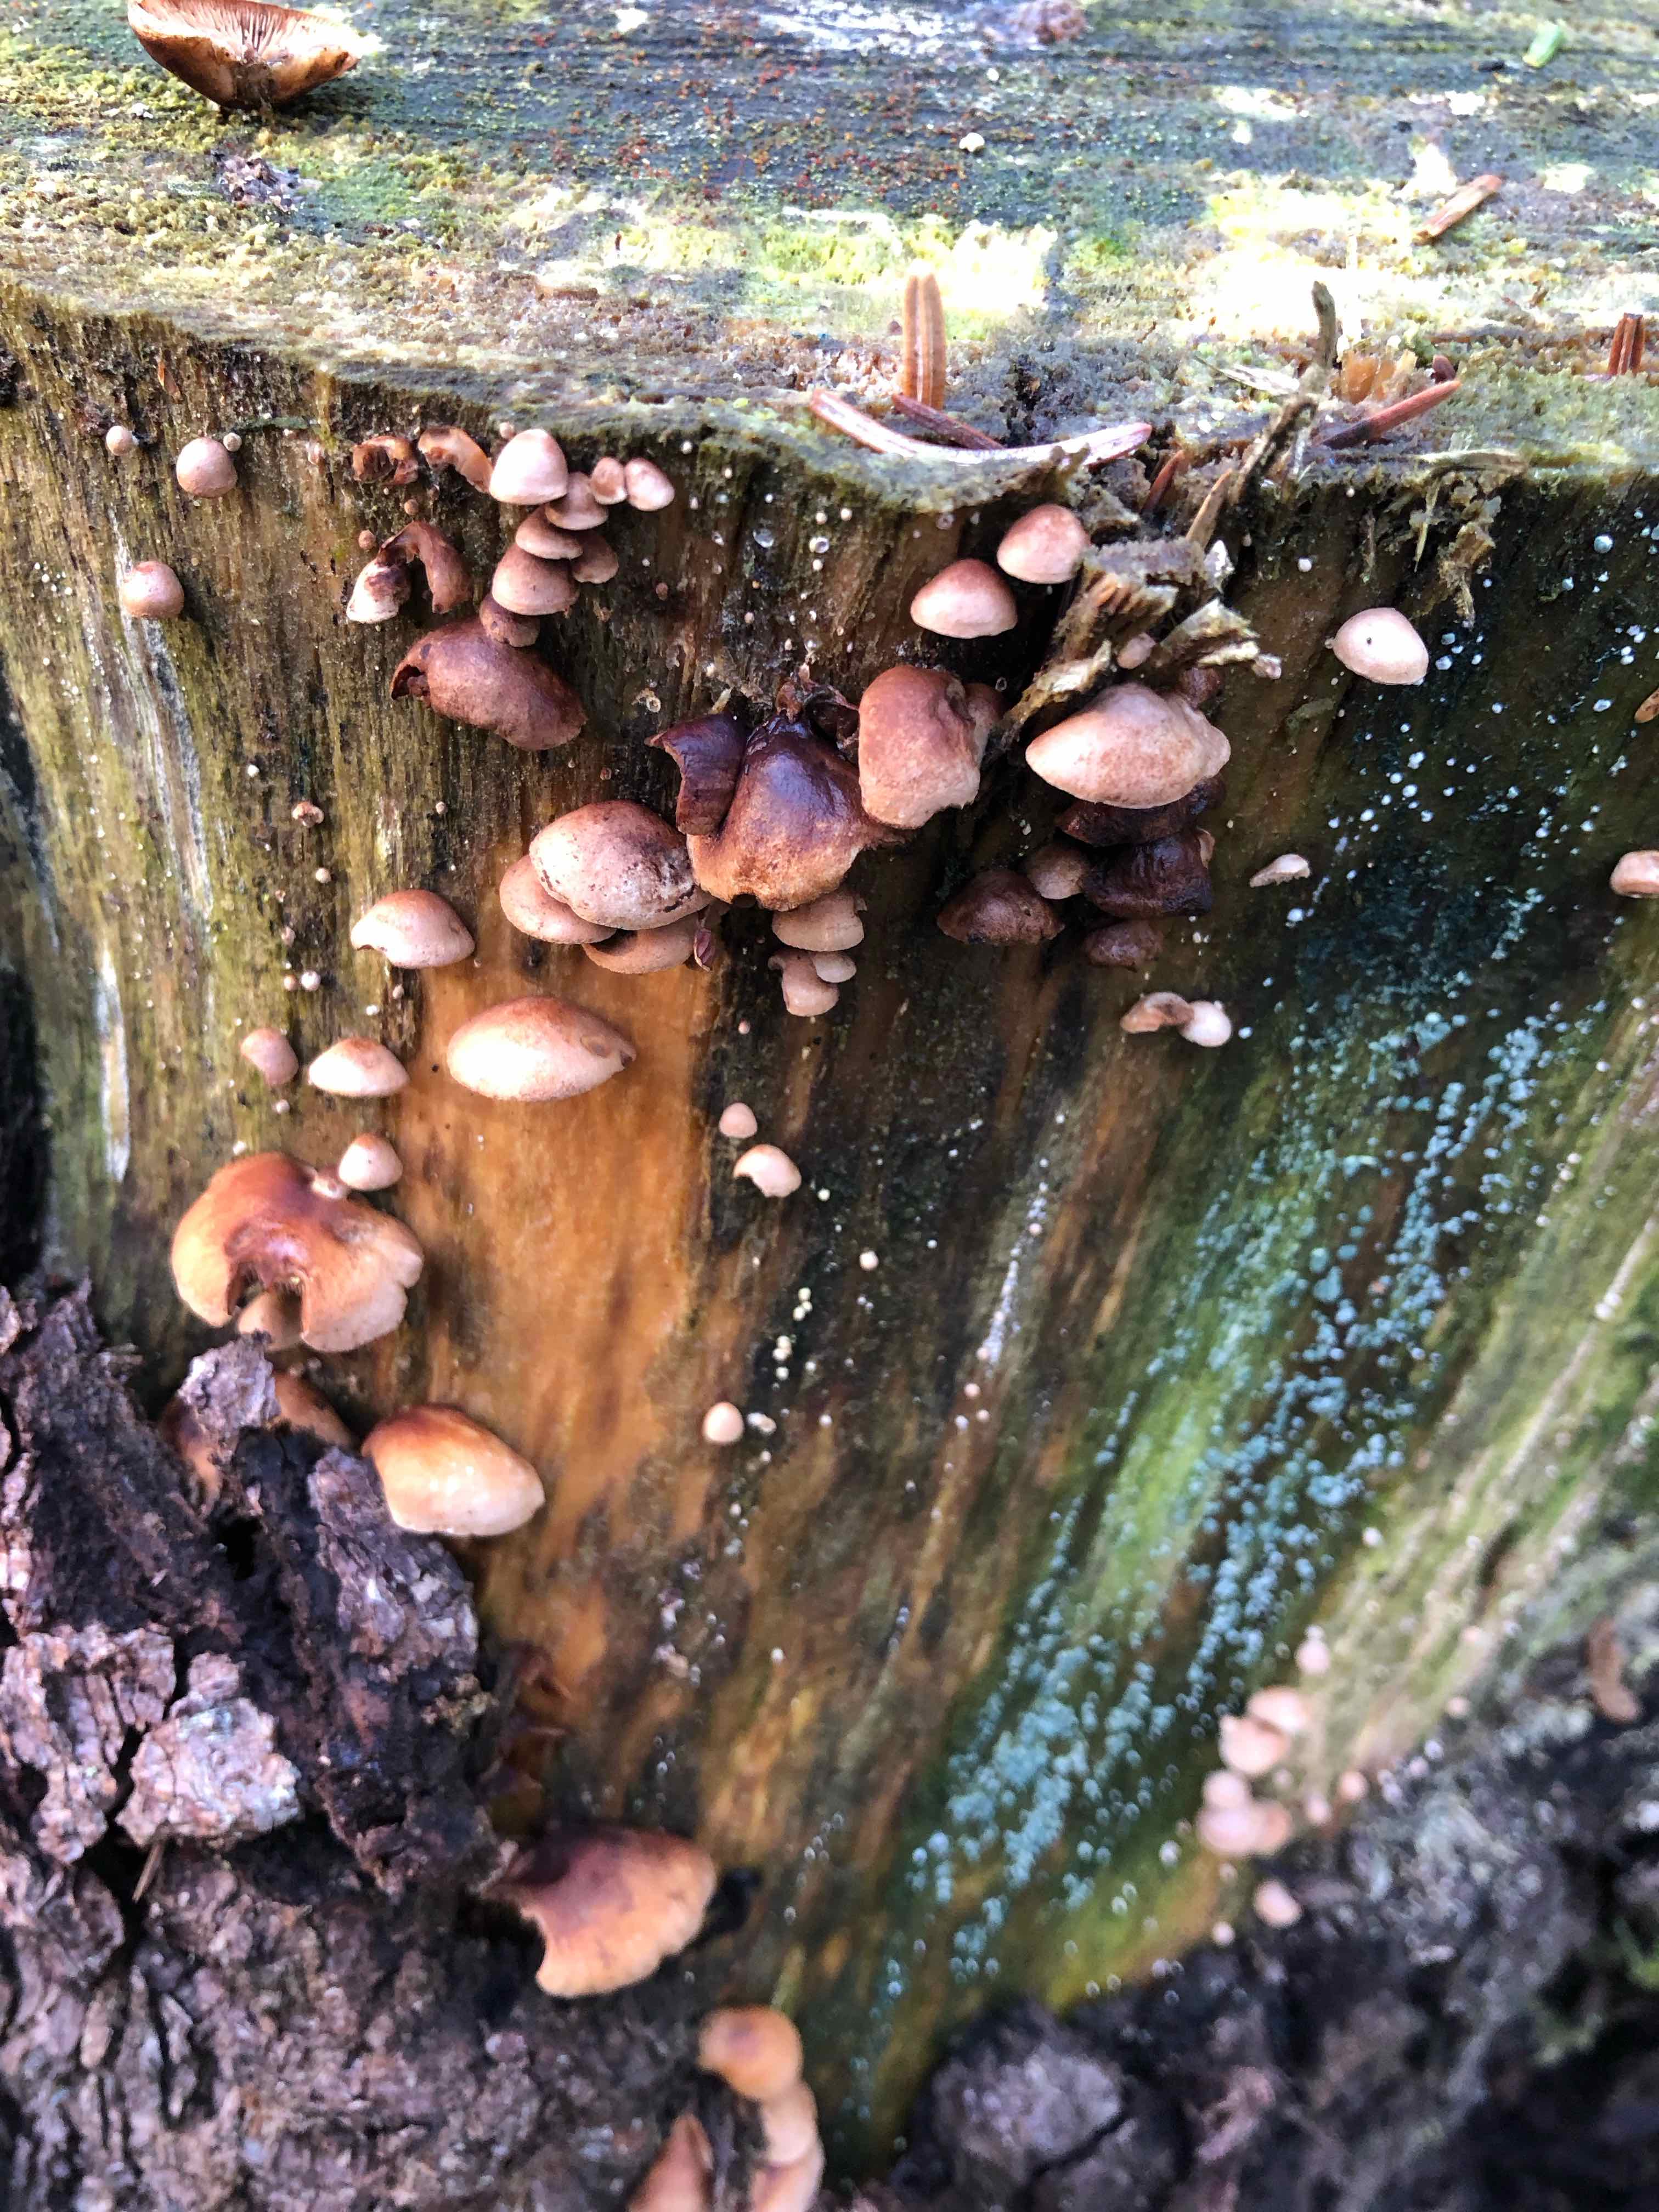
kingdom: Fungi
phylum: Basidiomycota
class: Agaricomycetes
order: Agaricales
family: Strophariaceae
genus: Deconica
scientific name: Deconica horizontalis
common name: ved-stråhat
